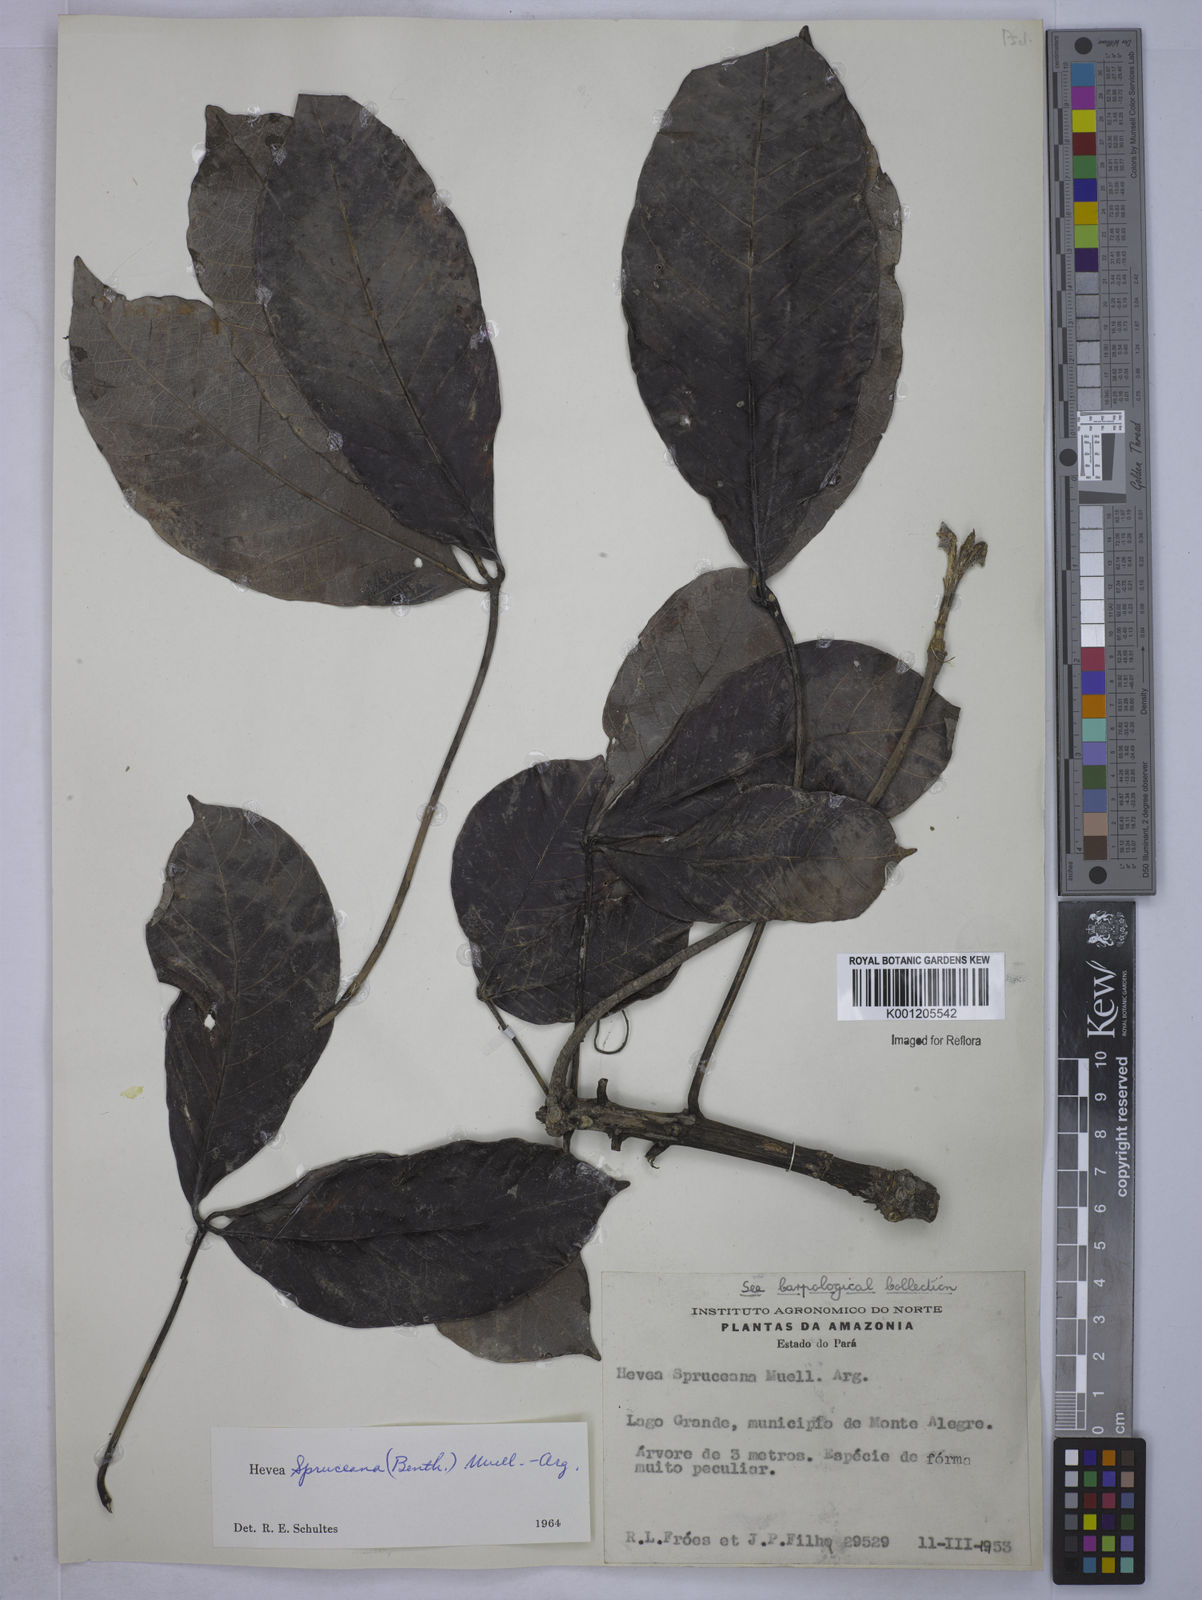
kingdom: Plantae
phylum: Tracheophyta
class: Magnoliopsida
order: Malpighiales
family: Euphorbiaceae
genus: Hevea
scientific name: Hevea
